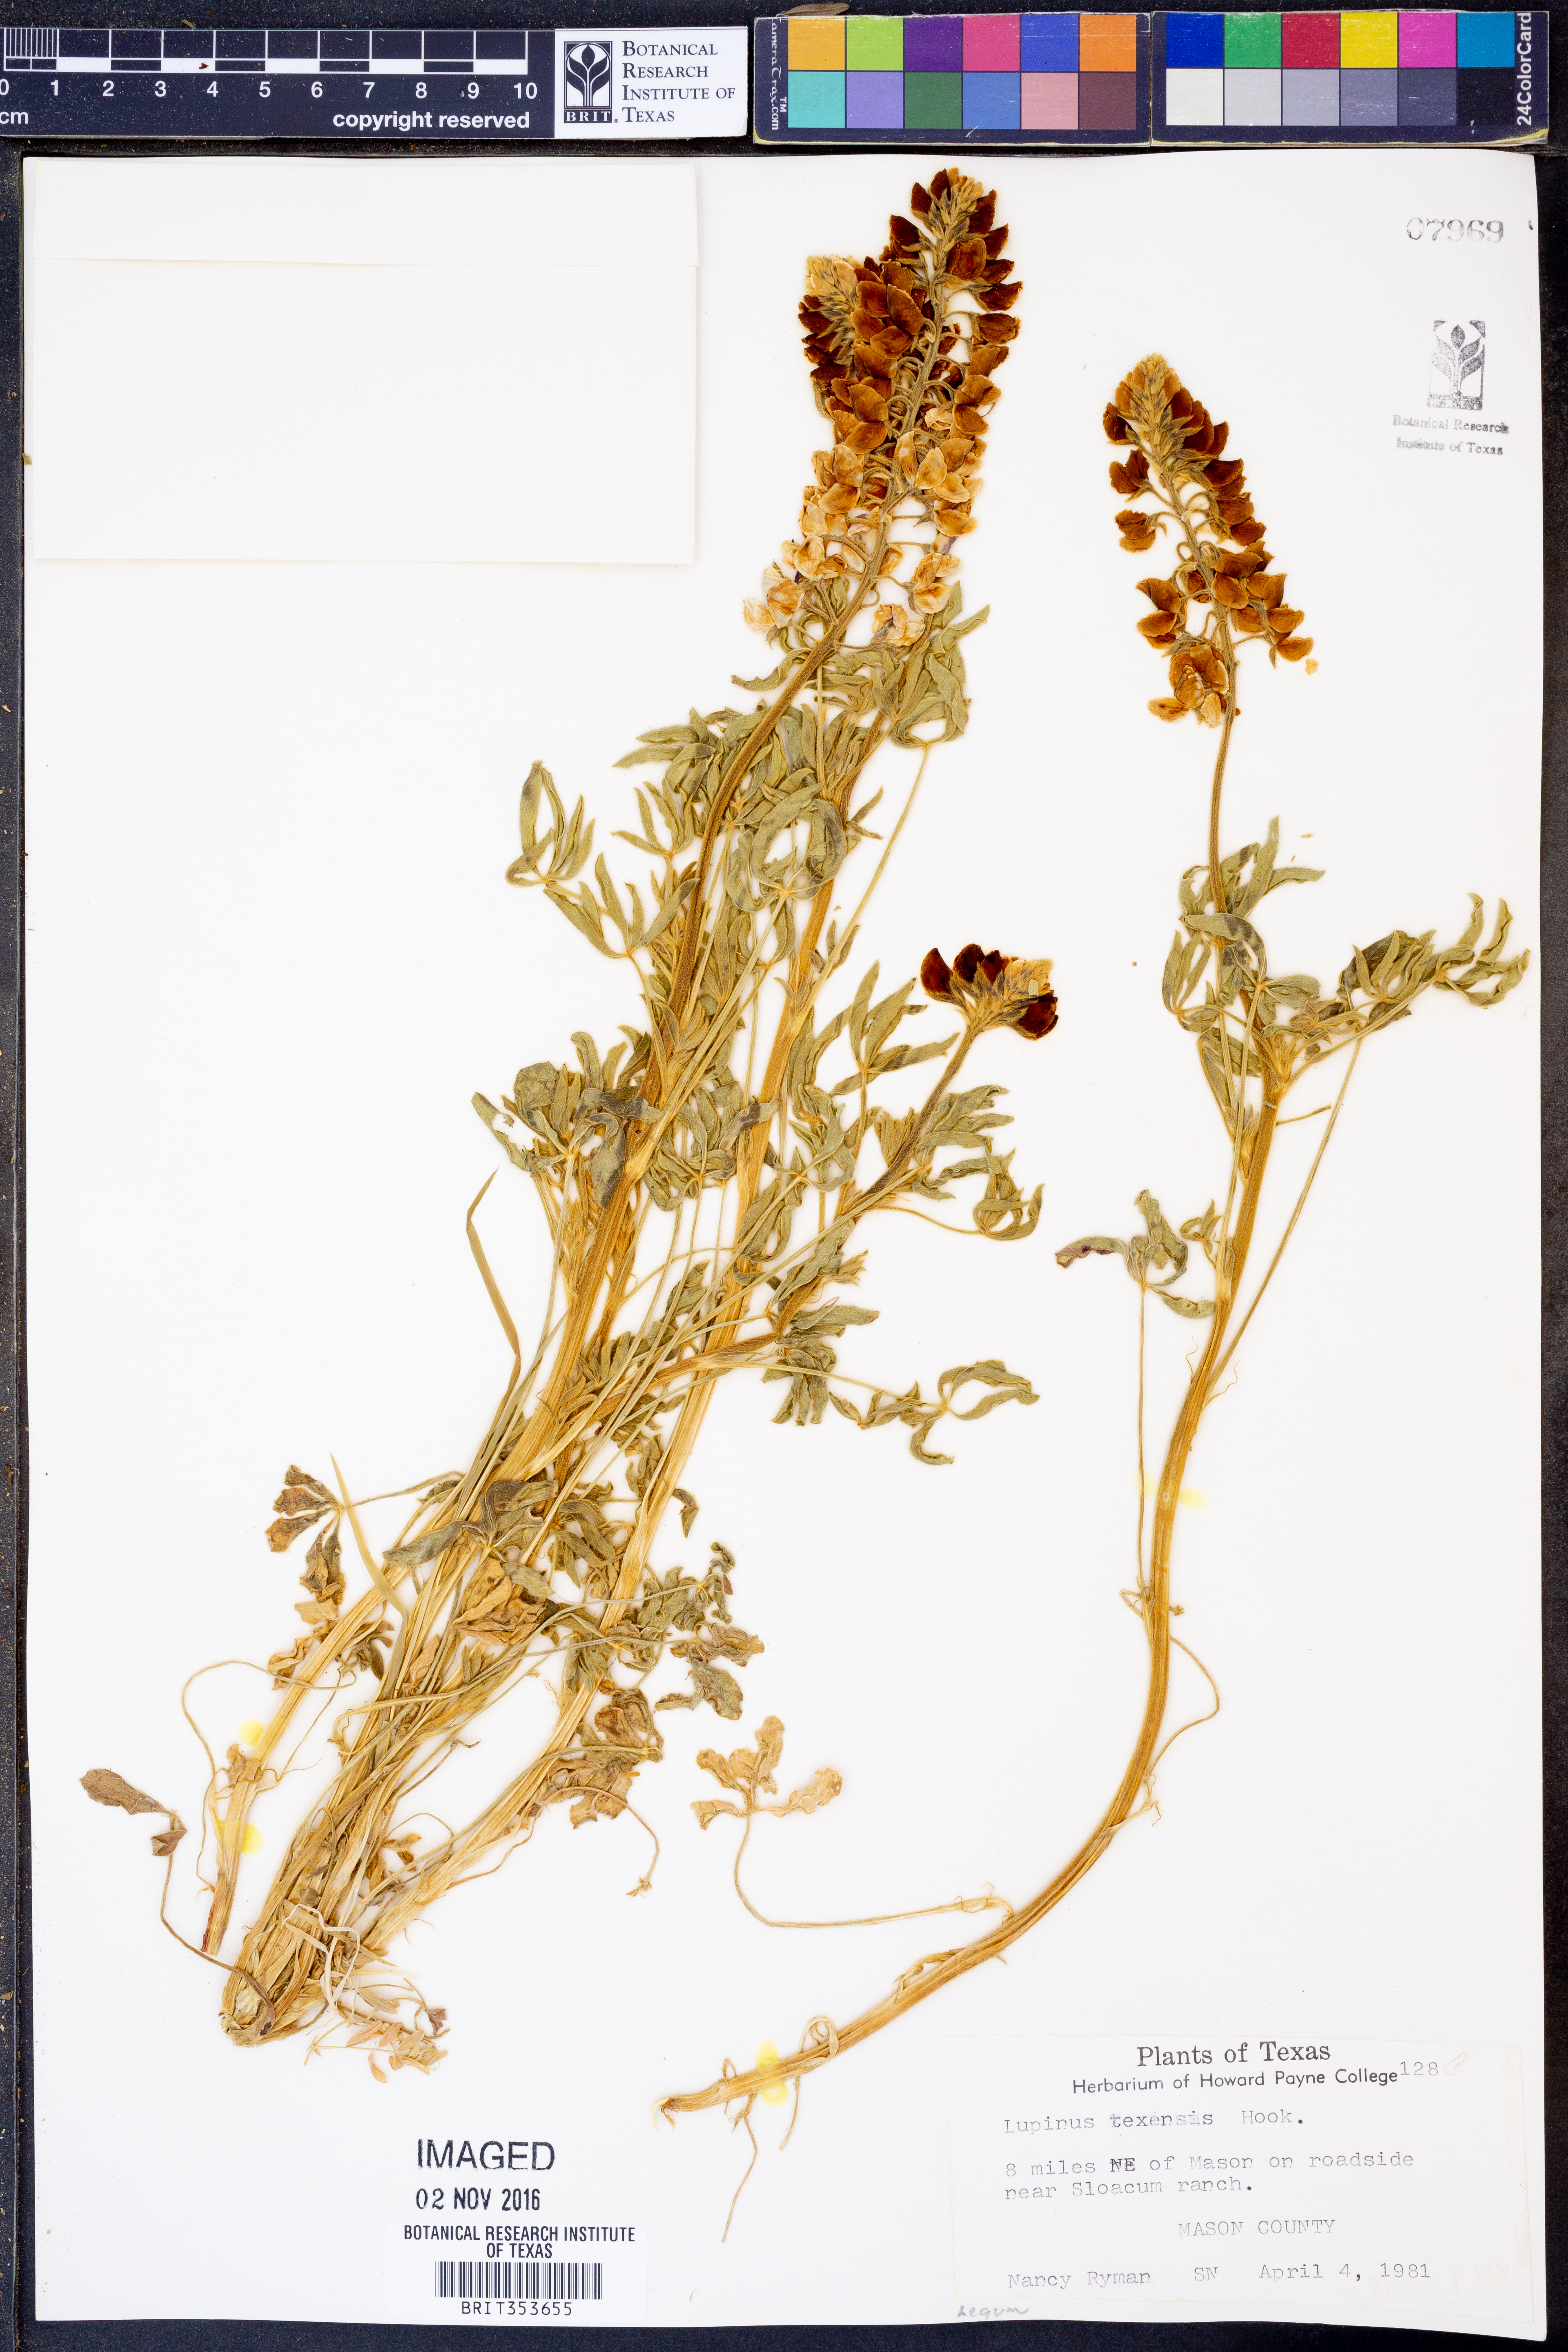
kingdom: Plantae
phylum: Tracheophyta
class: Magnoliopsida
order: Fabales
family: Fabaceae
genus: Lupinus
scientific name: Lupinus texensis
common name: Texas bluebonnet
